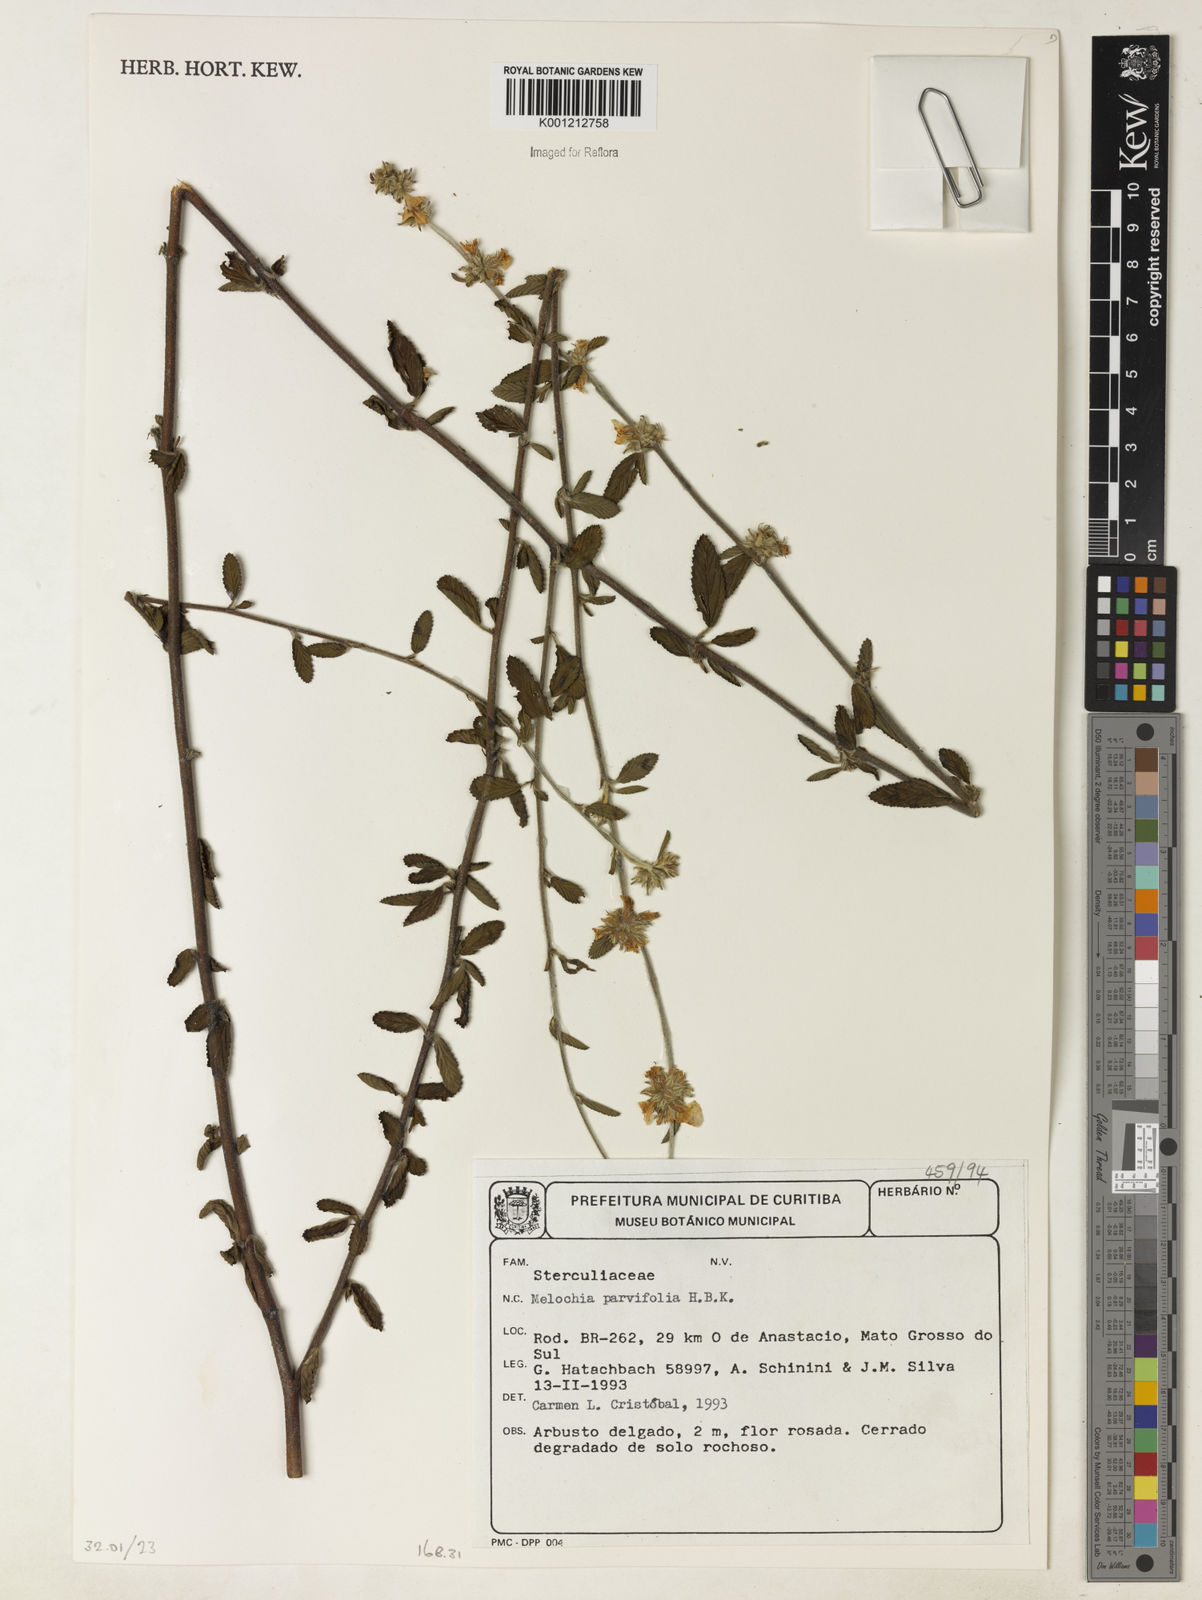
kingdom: Plantae
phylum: Tracheophyta
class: Magnoliopsida
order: Malvales
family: Malvaceae
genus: Melochia
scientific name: Melochia
